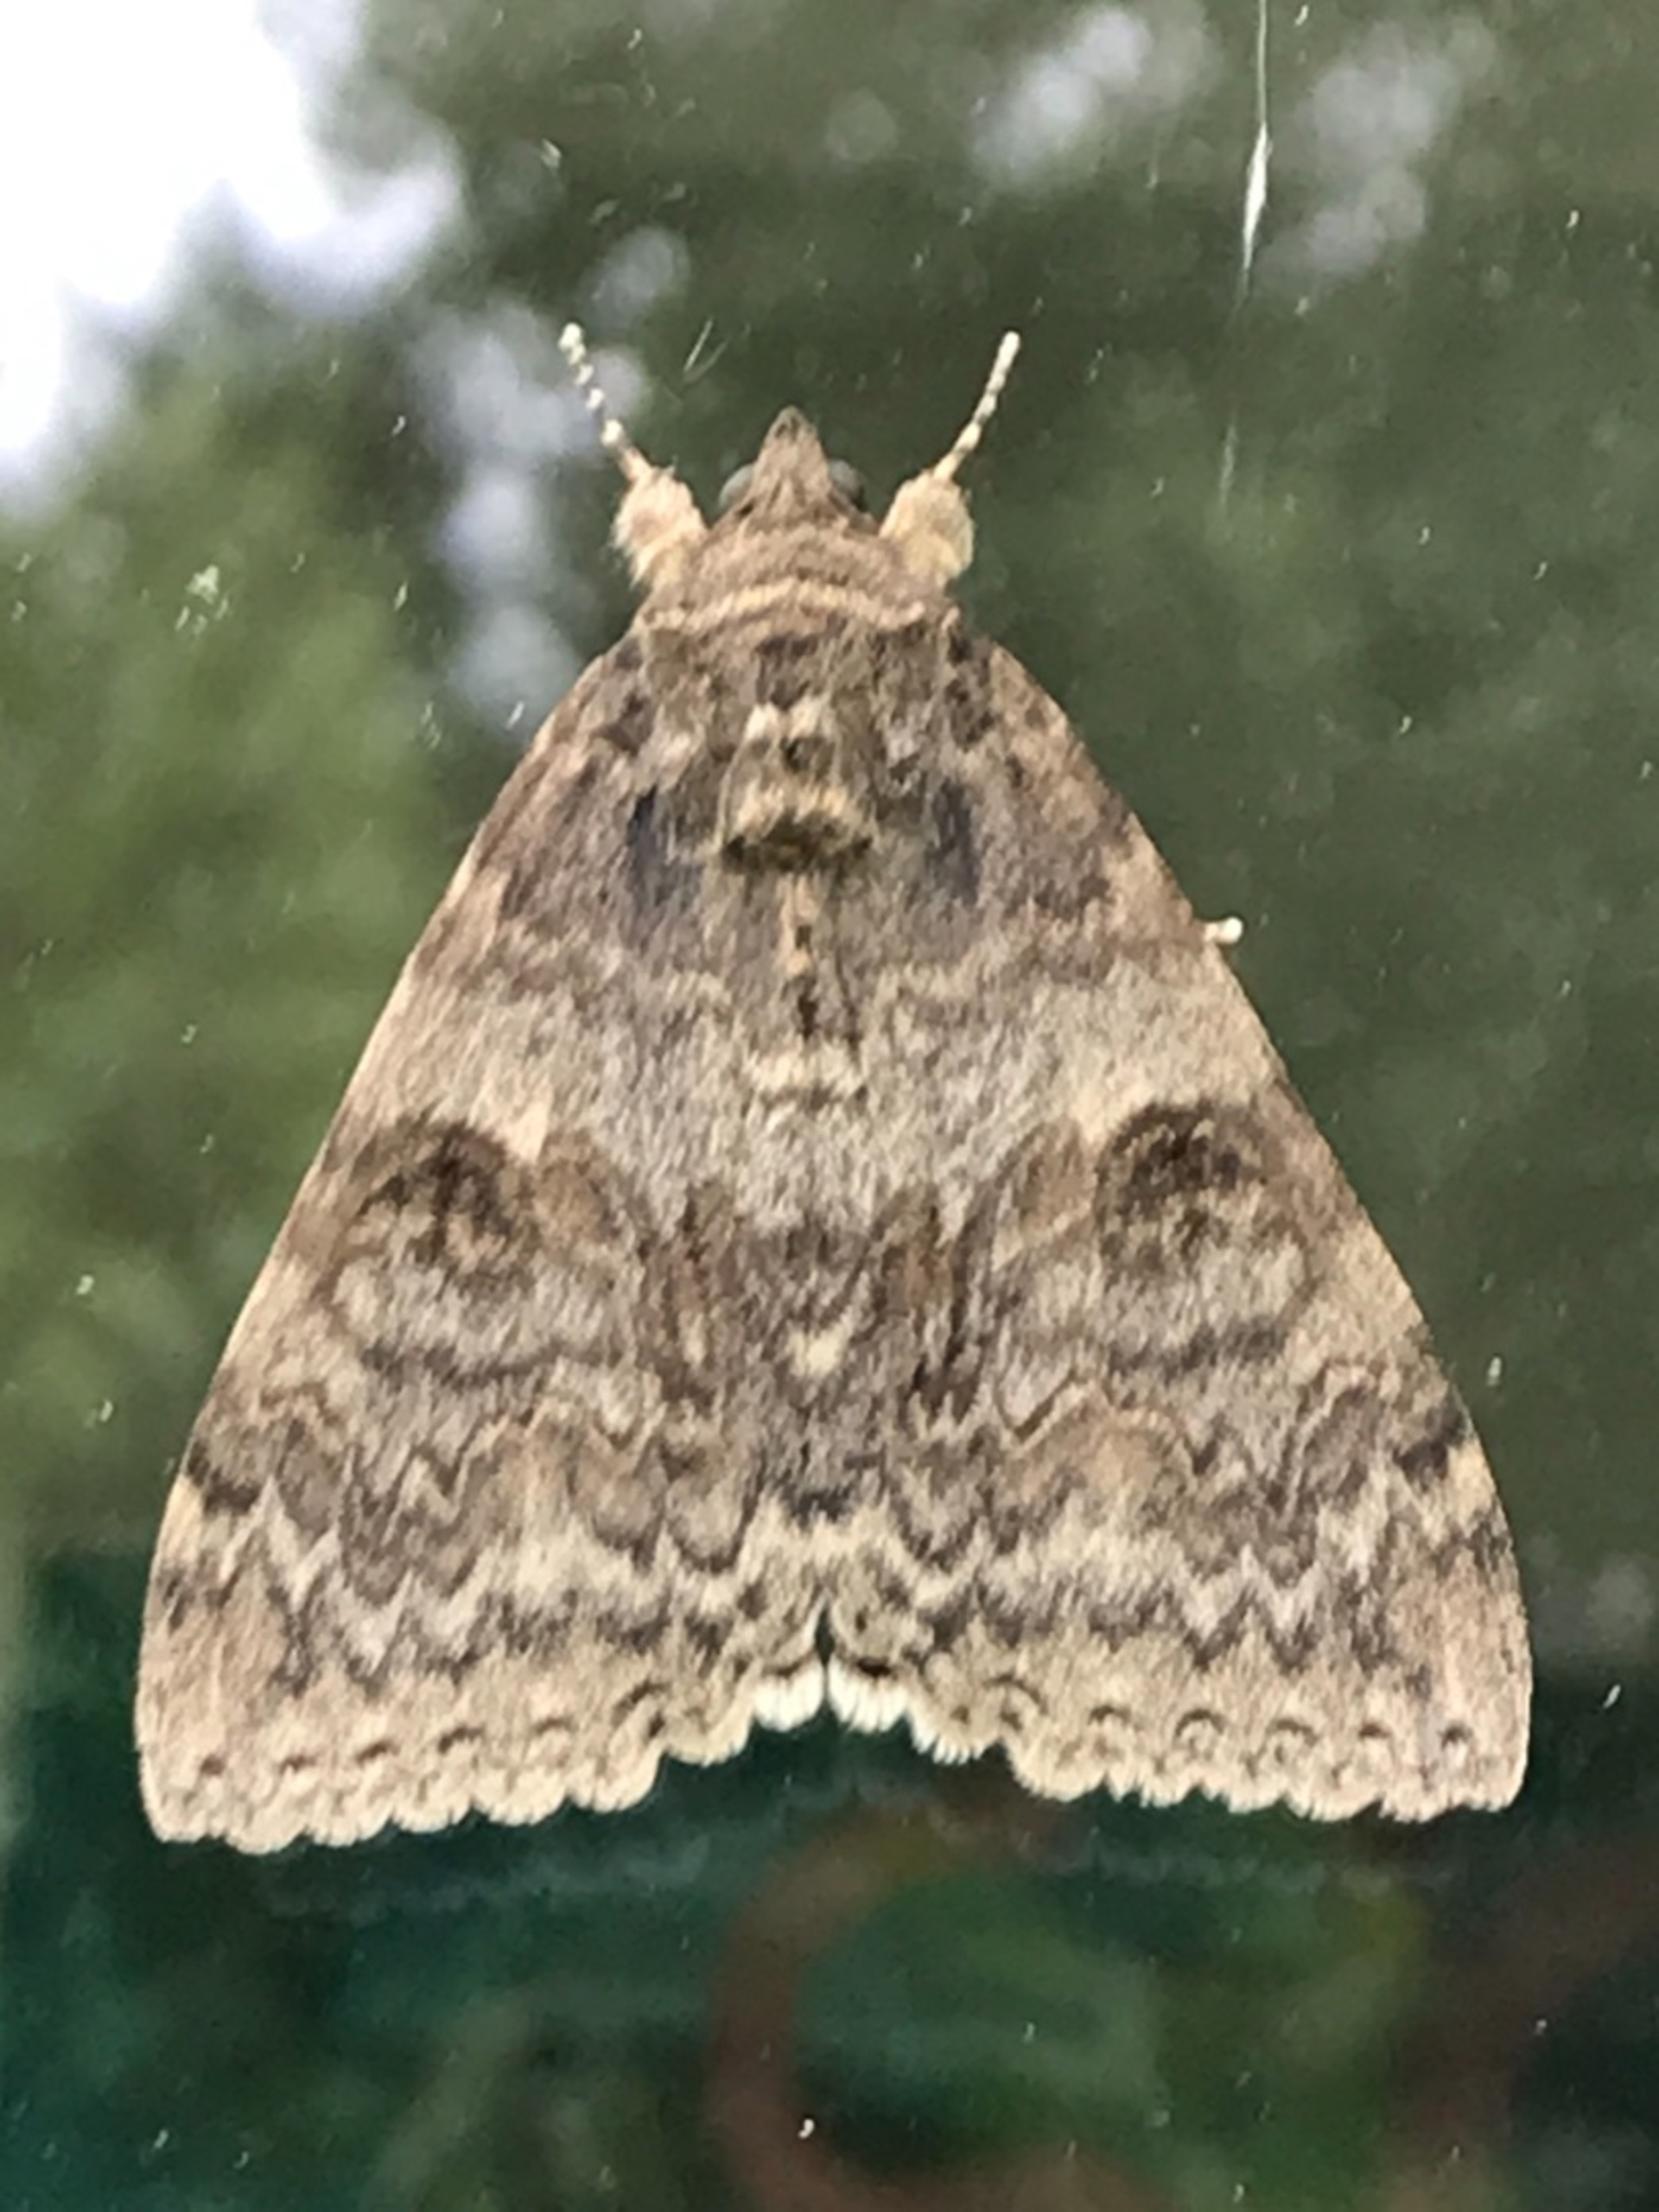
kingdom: Animalia
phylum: Arthropoda
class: Insecta
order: Lepidoptera
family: Erebidae
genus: Catocala
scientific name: Catocala nupta
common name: Rødt ordensbånd
